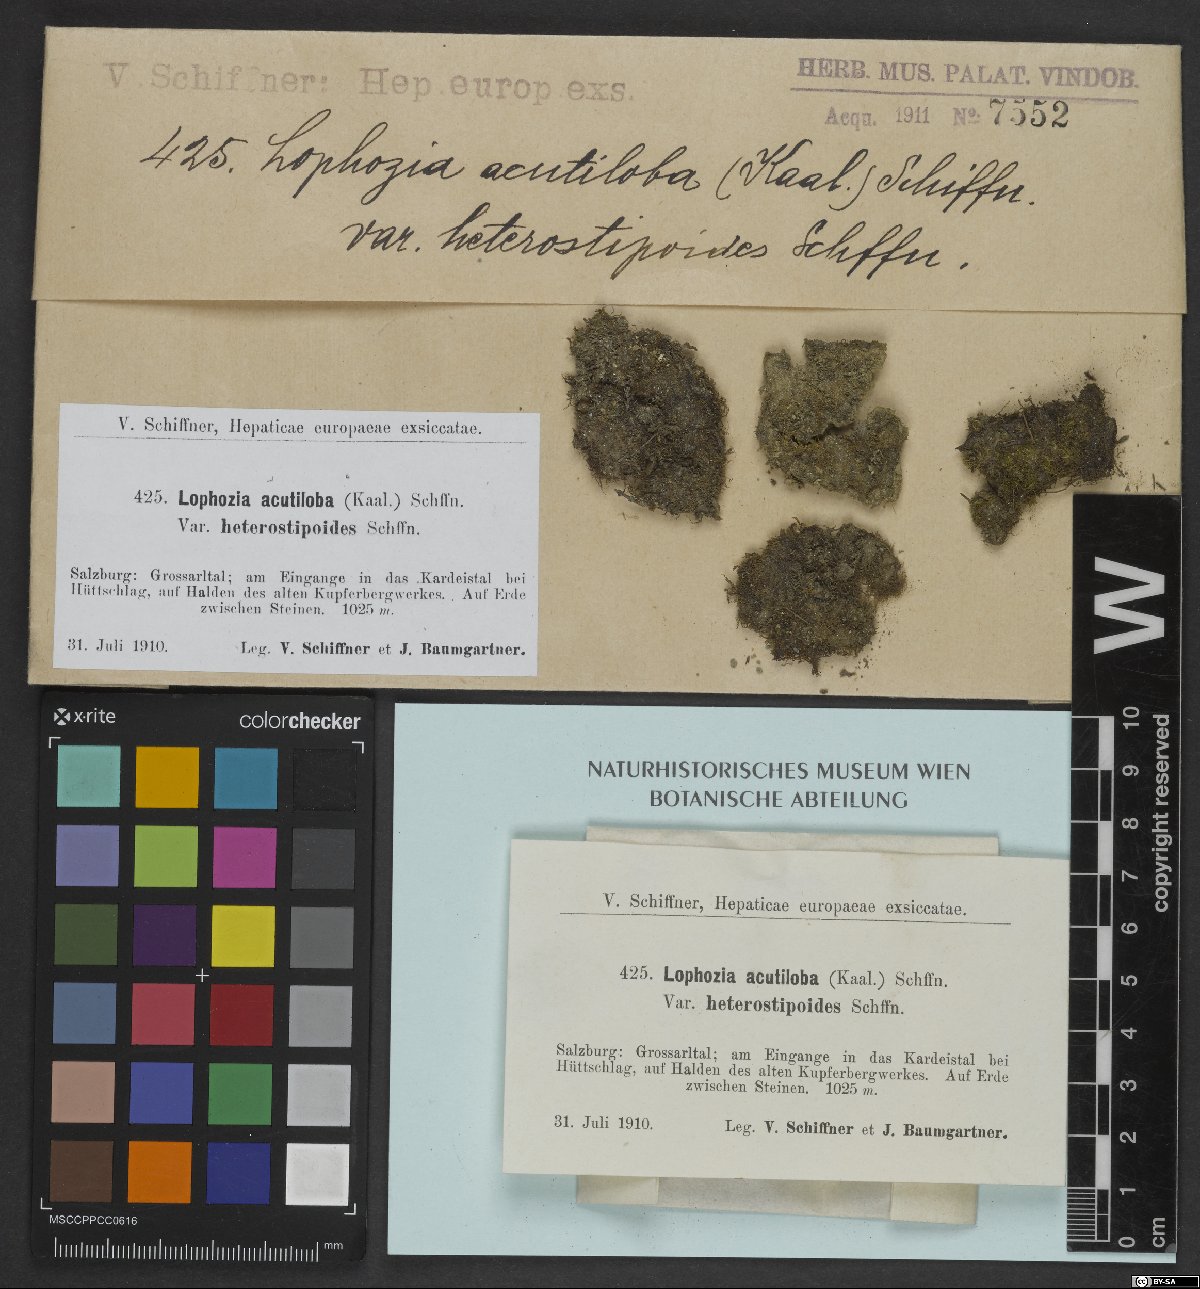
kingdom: Plantae
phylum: Marchantiophyta
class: Jungermanniopsida
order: Jungermanniales
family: Anastrophyllaceae
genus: Gymnocolea
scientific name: Gymnocolea inflata
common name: Inflated notchwort
